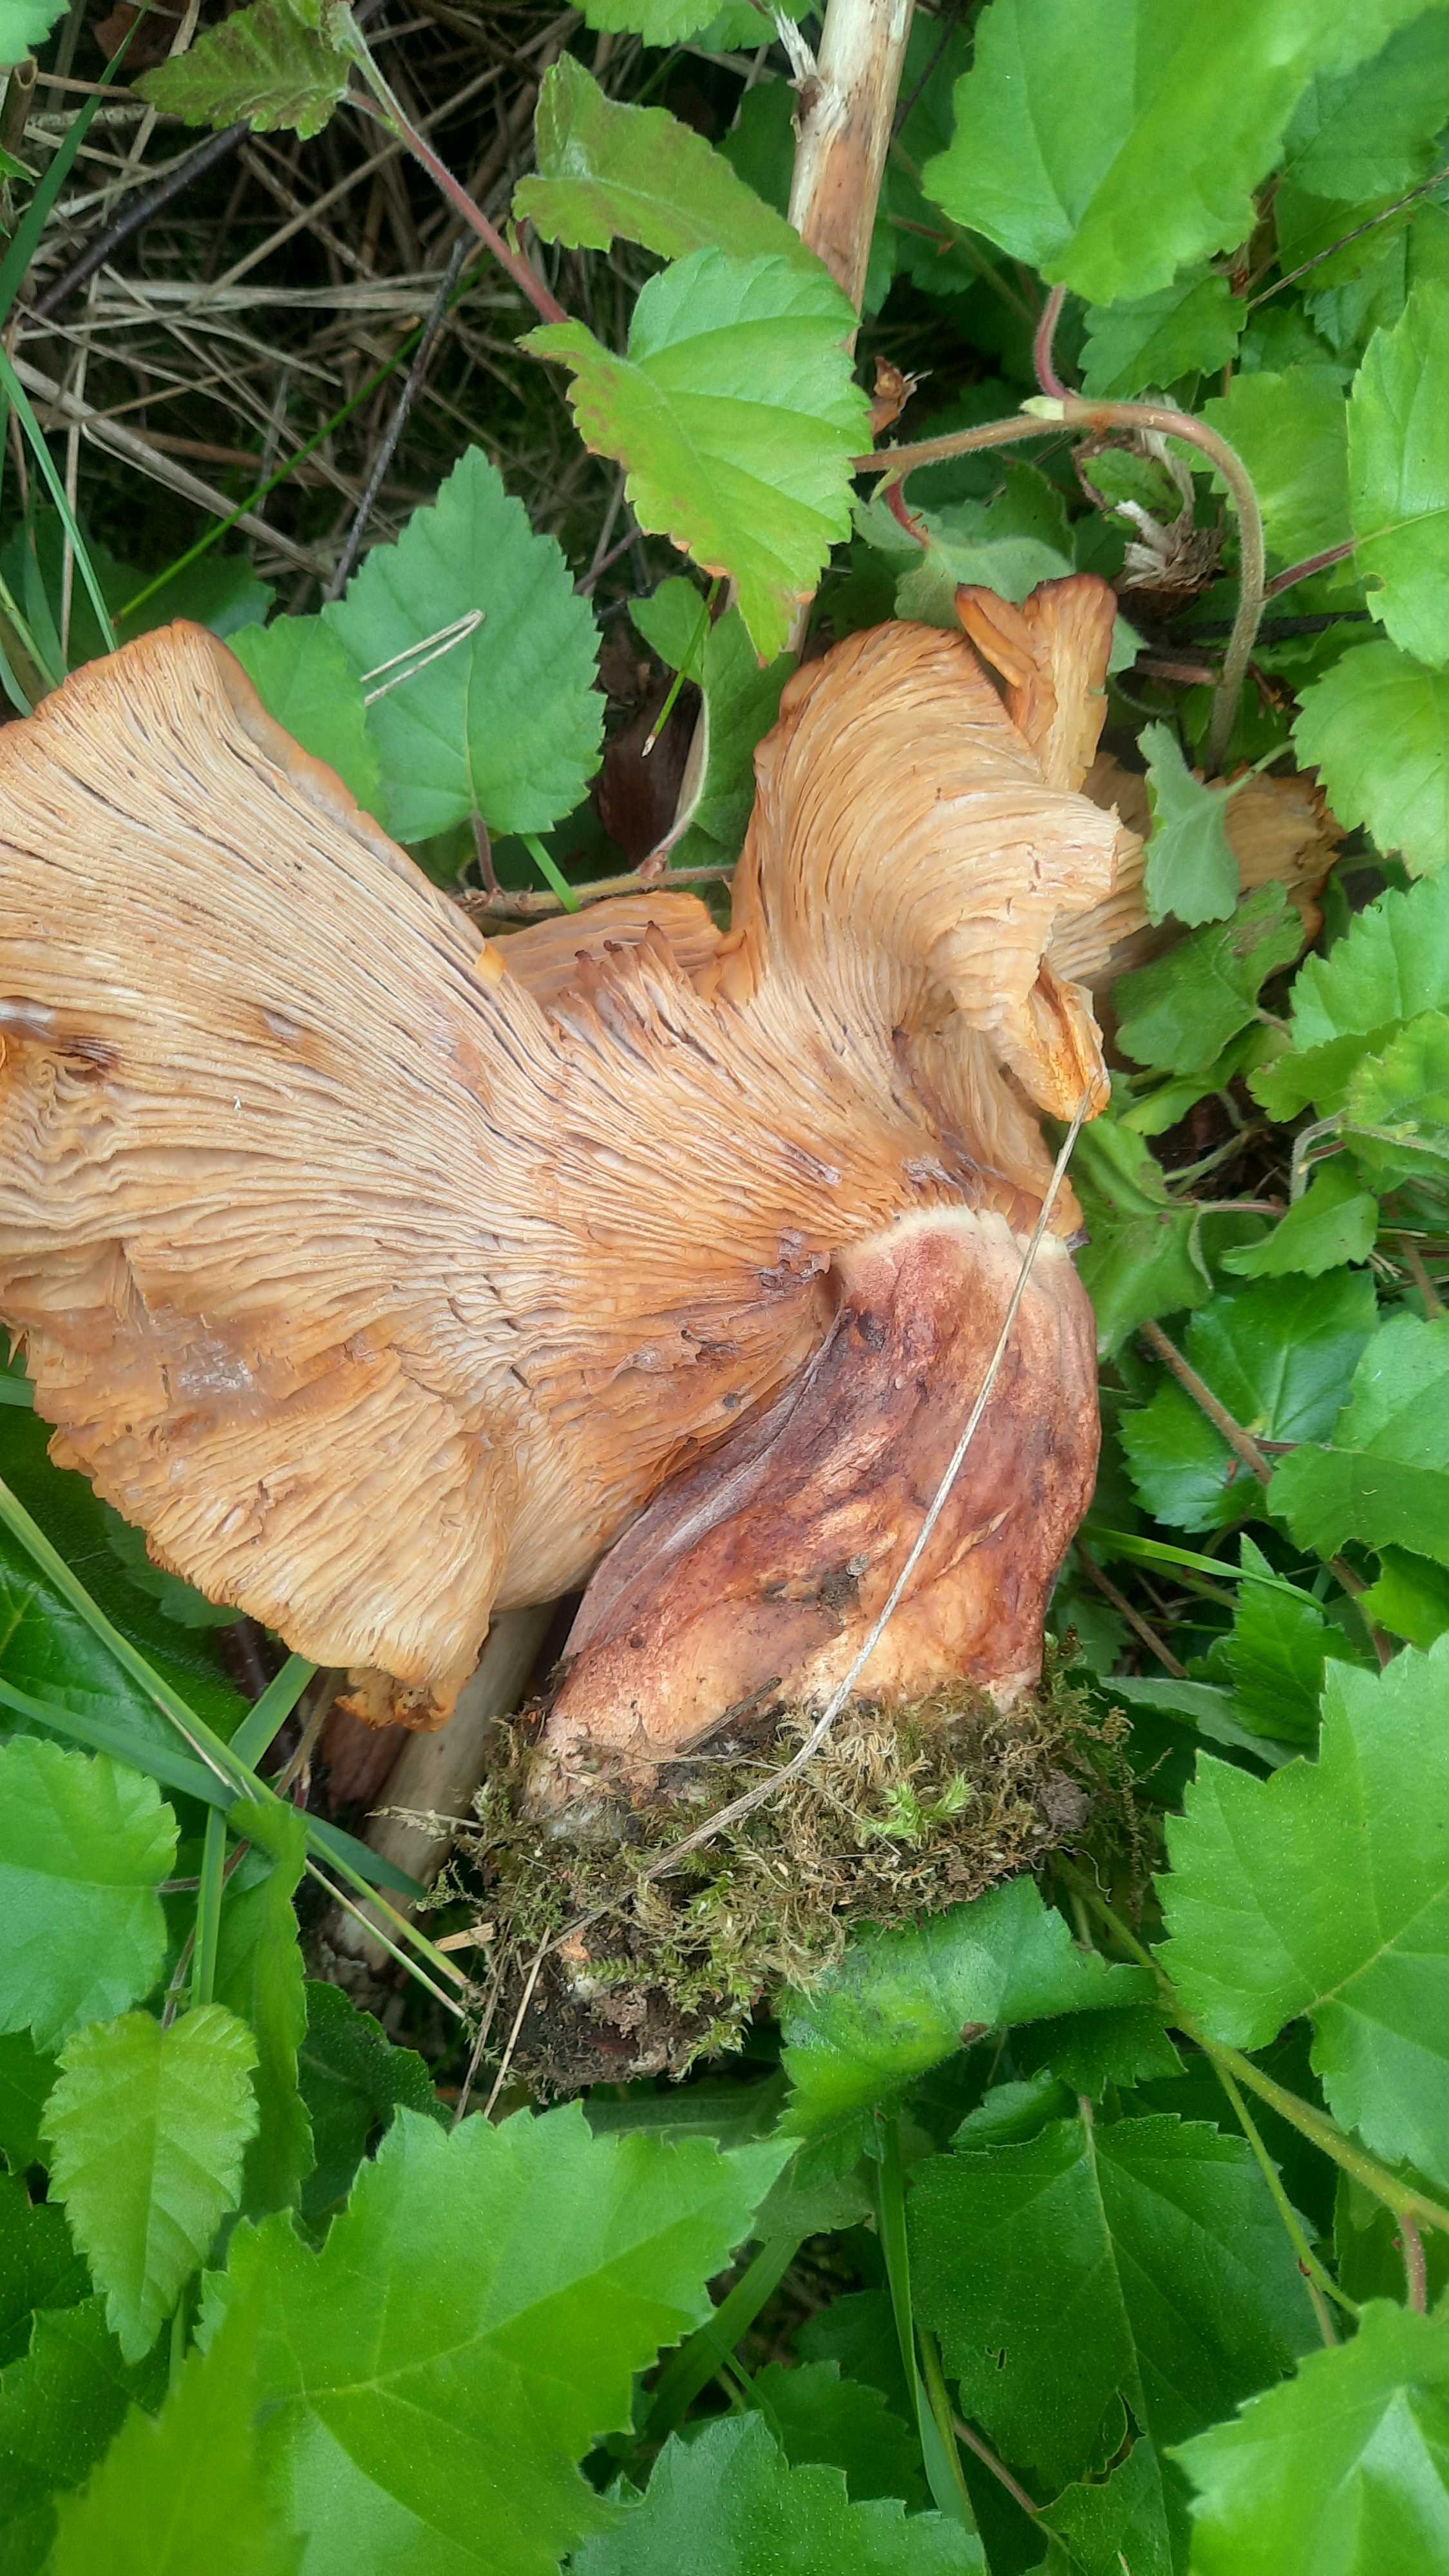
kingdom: Fungi
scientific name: Fungi
